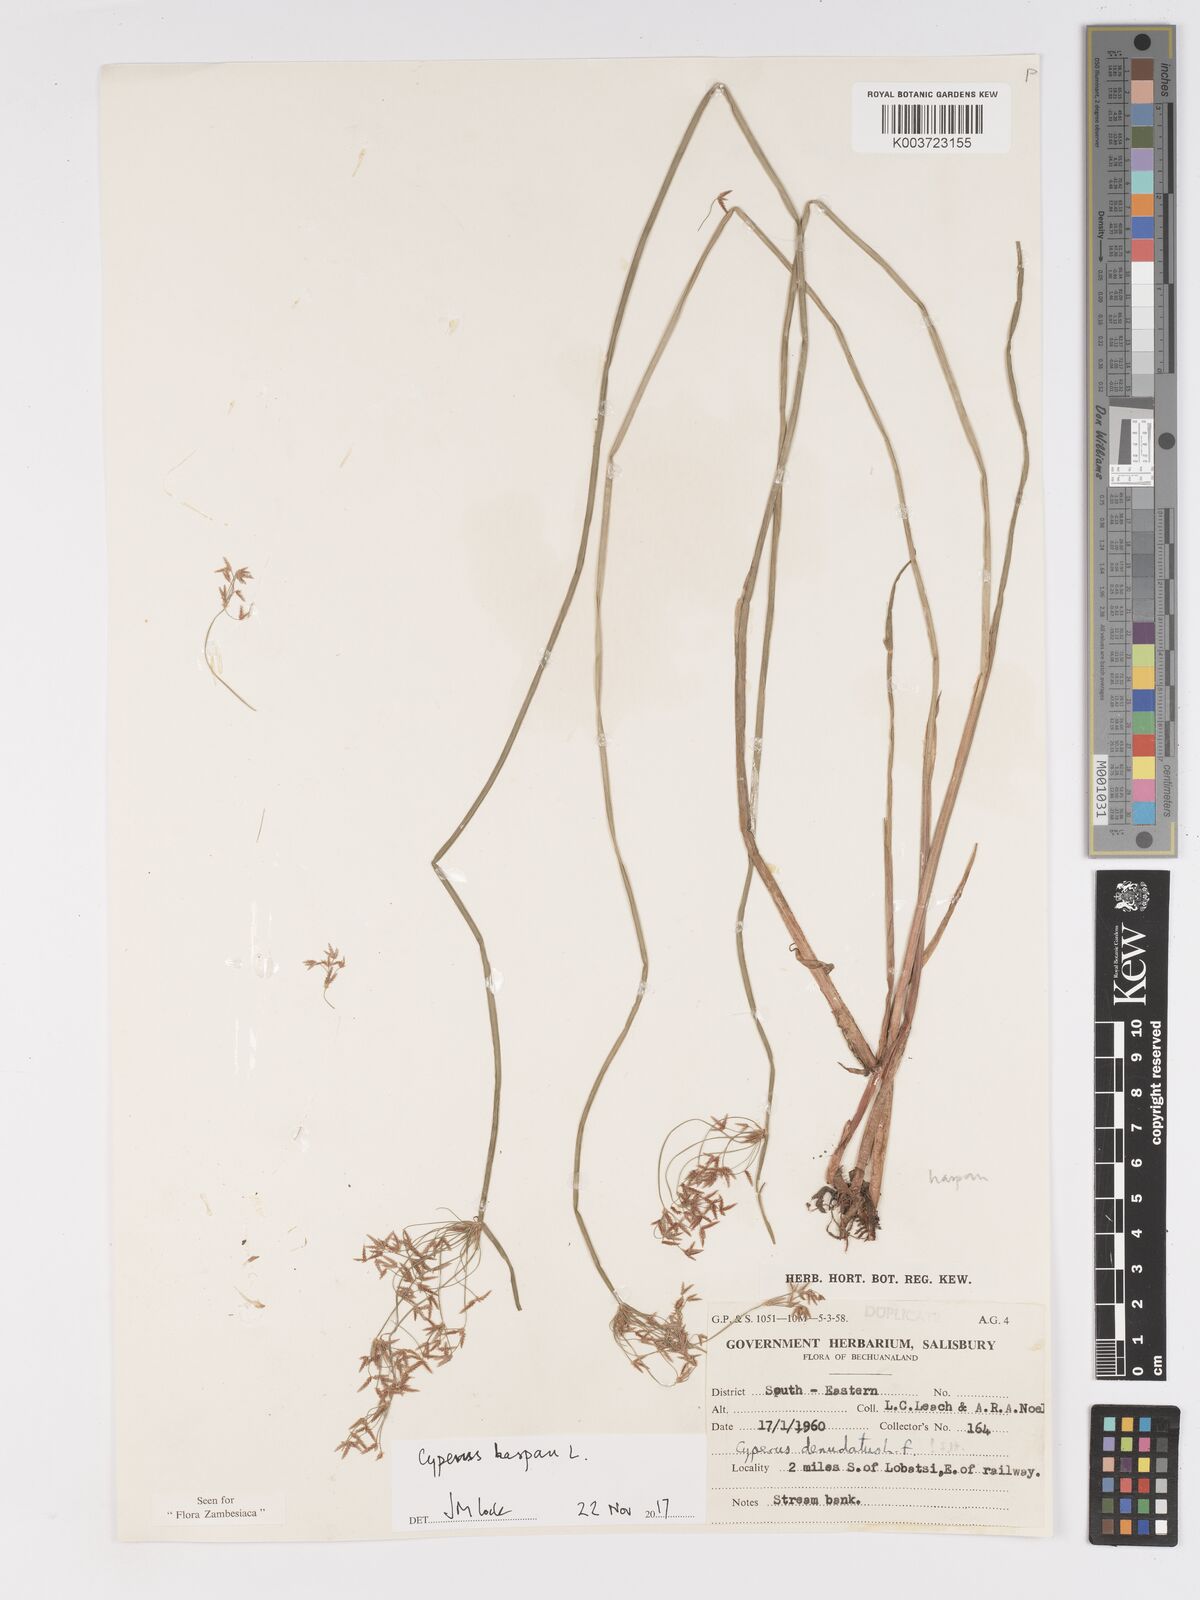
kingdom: Plantae
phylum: Tracheophyta
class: Liliopsida
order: Poales
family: Cyperaceae
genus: Cyperus
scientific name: Cyperus haspan
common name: Haspan flatsedge
